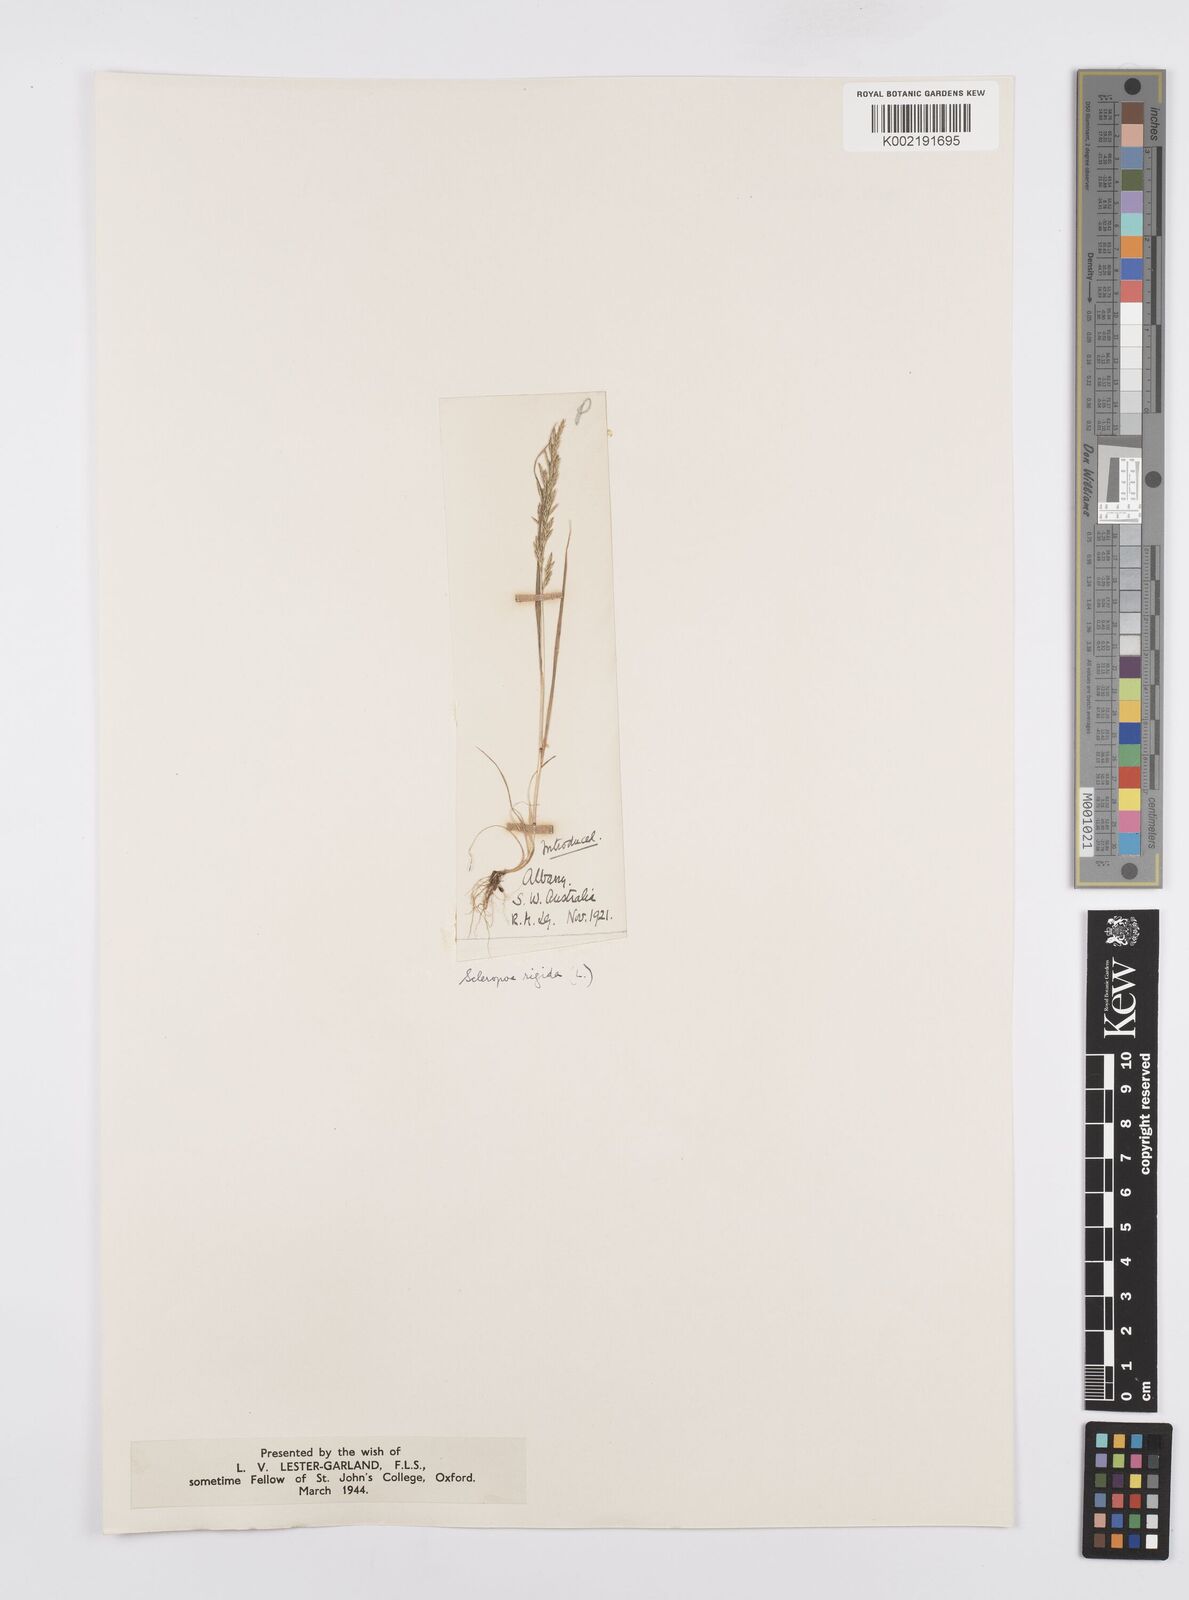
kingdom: Plantae
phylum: Tracheophyta
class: Liliopsida
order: Poales
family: Poaceae
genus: Catapodium
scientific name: Catapodium rigidum
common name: Fern-grass
